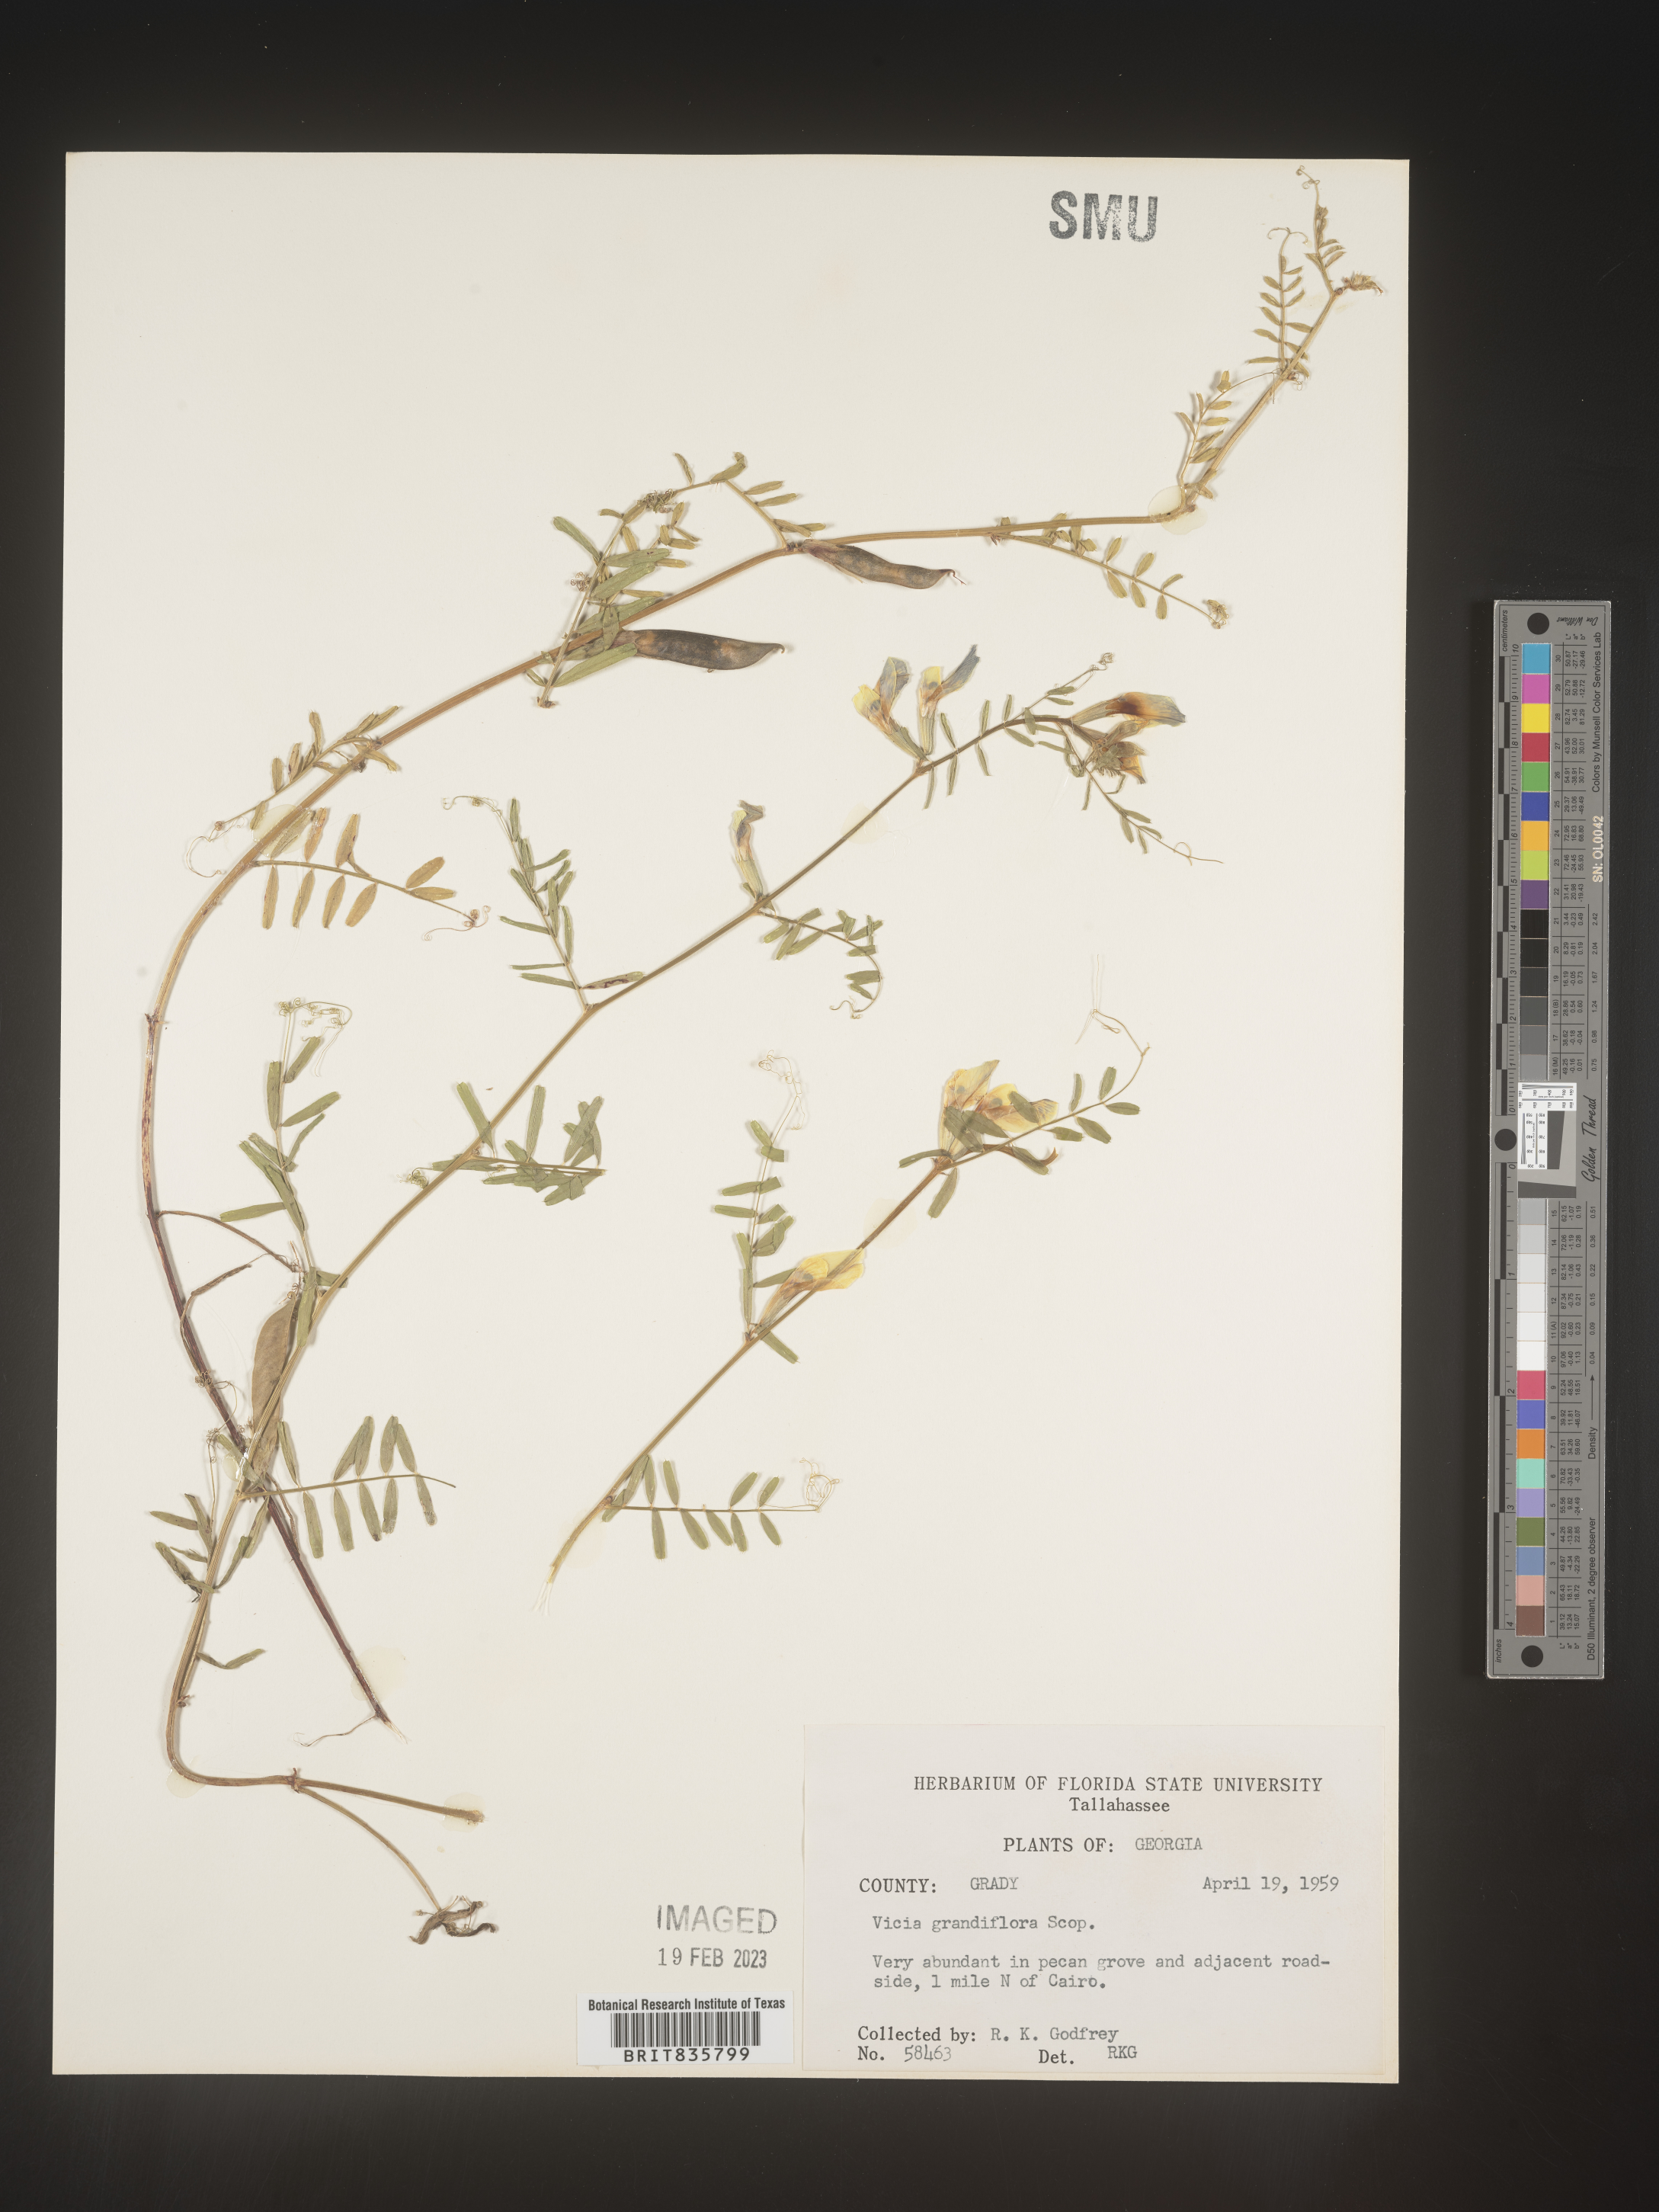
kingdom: Plantae
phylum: Tracheophyta
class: Magnoliopsida
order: Fabales
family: Fabaceae
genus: Vicia
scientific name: Vicia grandiflora
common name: Large yellow vetch
